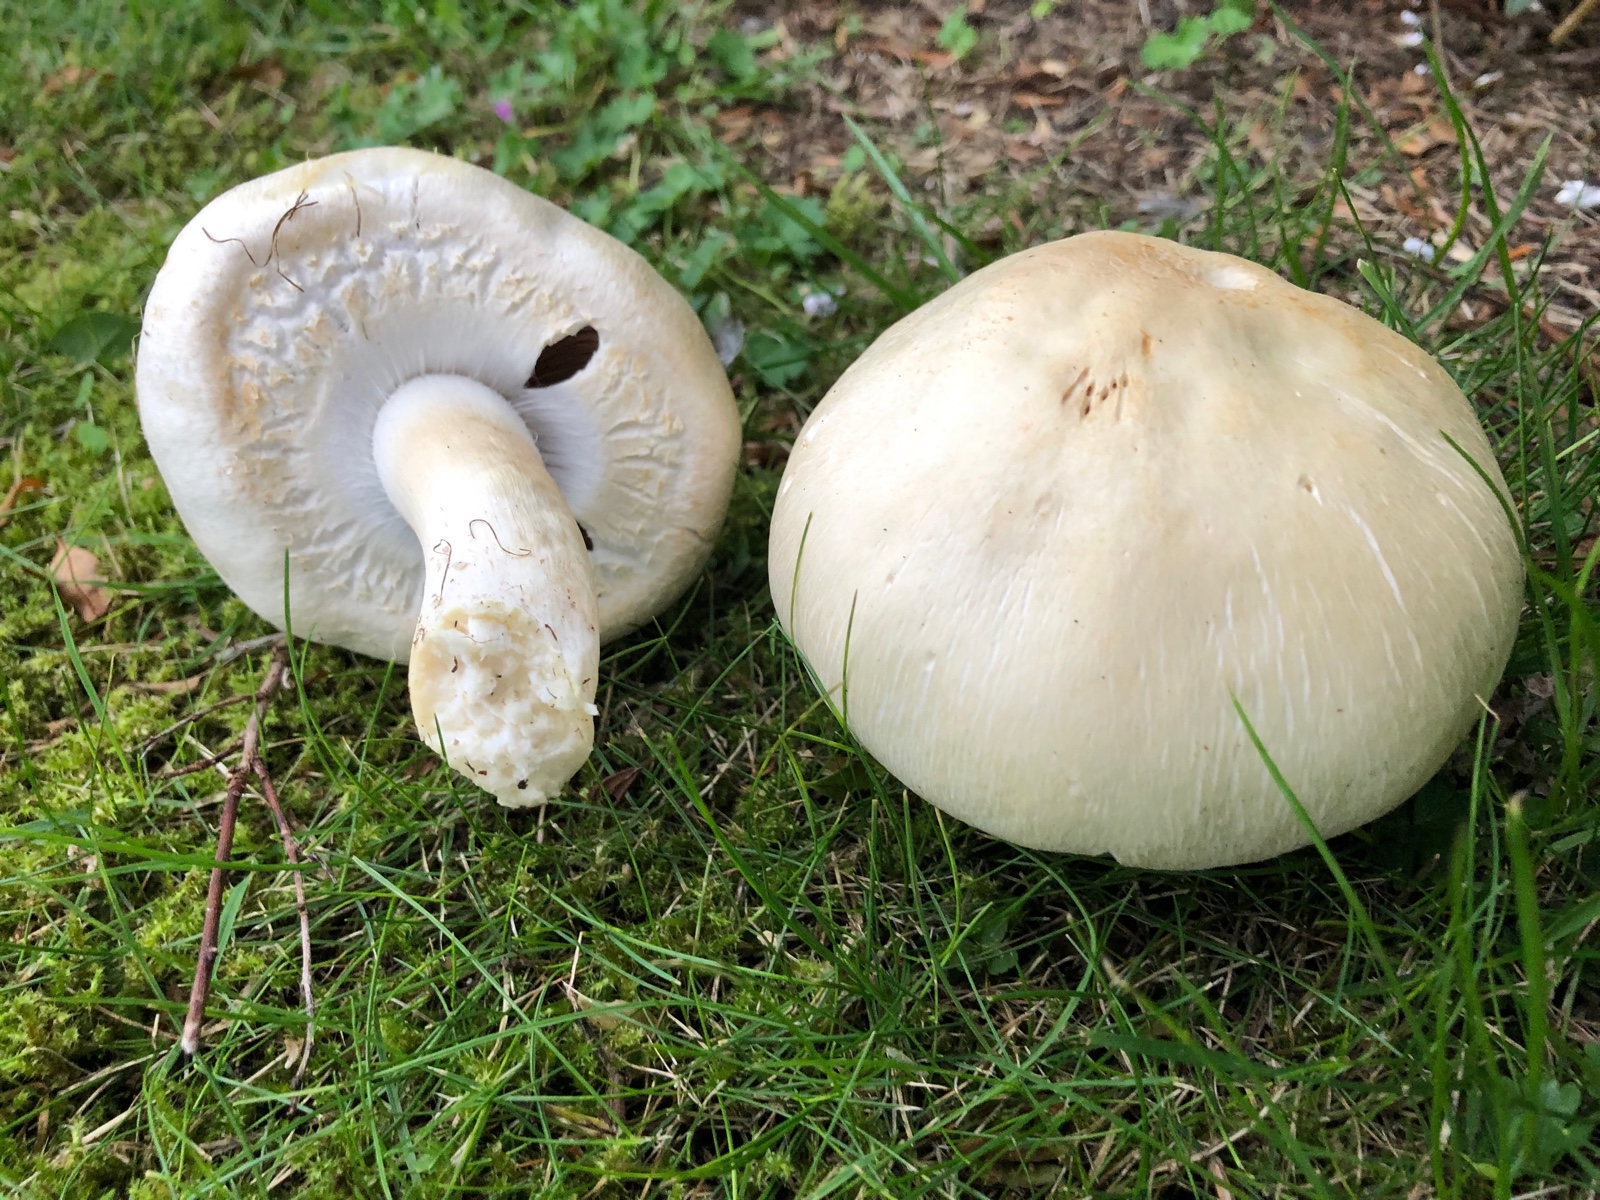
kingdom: Fungi
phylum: Basidiomycota
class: Agaricomycetes
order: Agaricales
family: Agaricaceae
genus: Agaricus
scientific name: Agaricus arvensis
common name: ager-champignon
